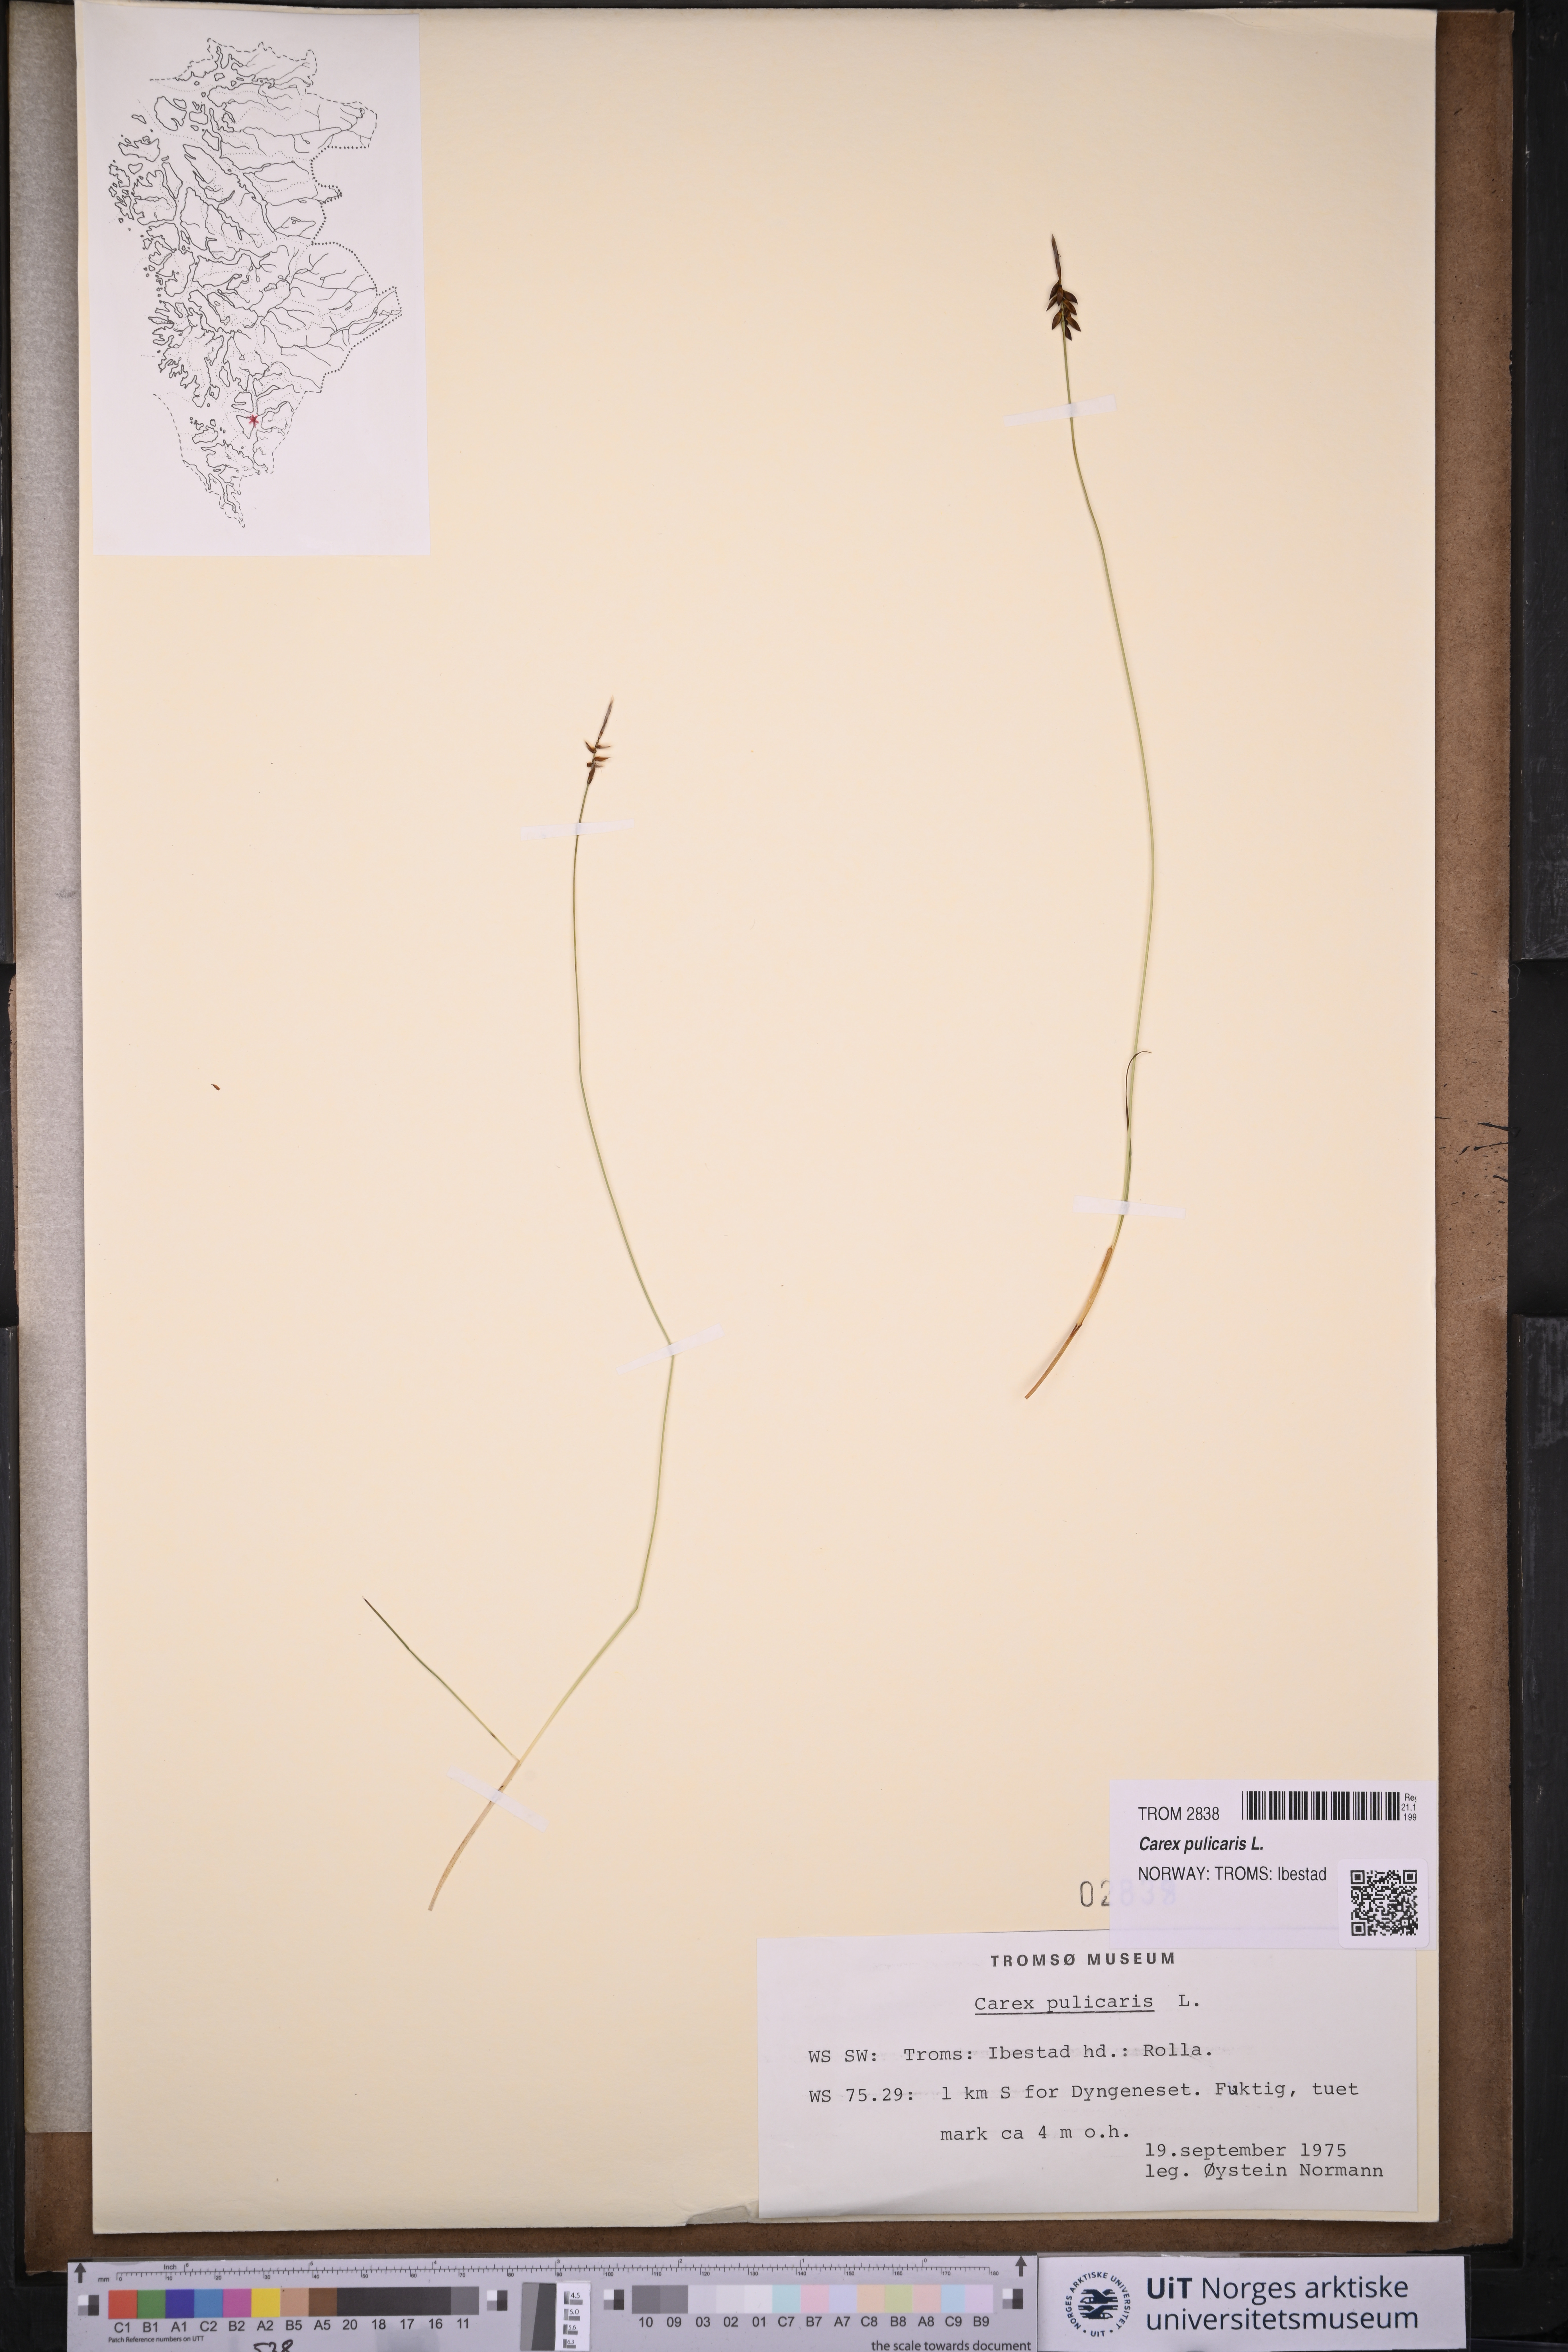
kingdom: Plantae
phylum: Tracheophyta
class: Liliopsida
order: Poales
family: Cyperaceae
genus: Carex
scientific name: Carex pulicaris
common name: Flea sedge
